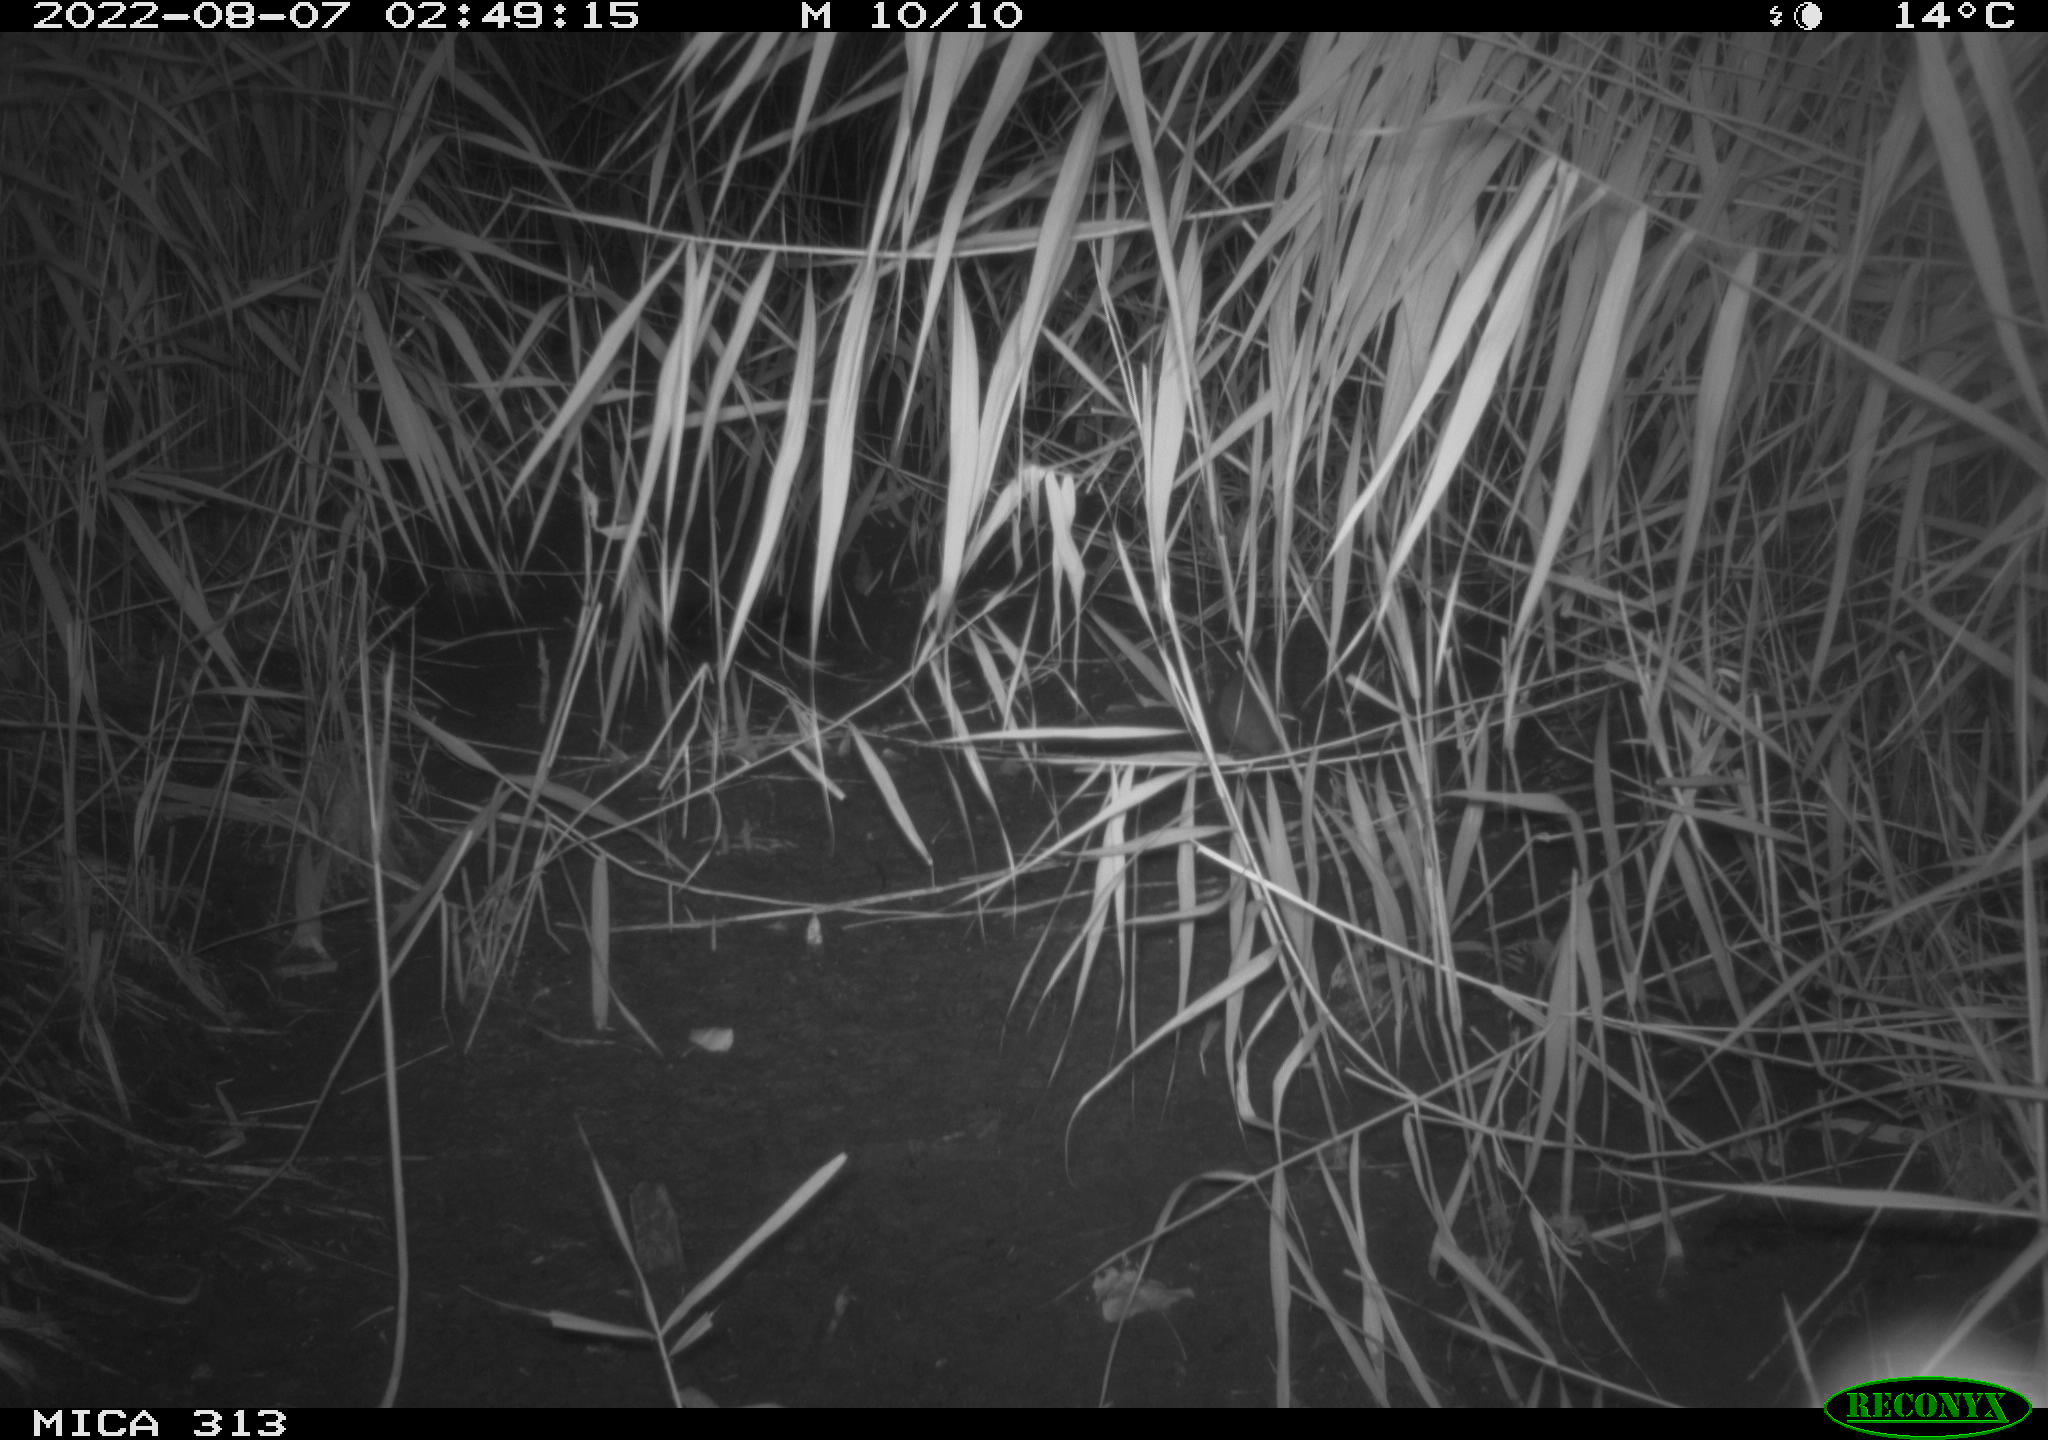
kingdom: Animalia
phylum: Chordata
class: Mammalia
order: Rodentia
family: Muridae
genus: Rattus
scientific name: Rattus norvegicus
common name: Brown rat
